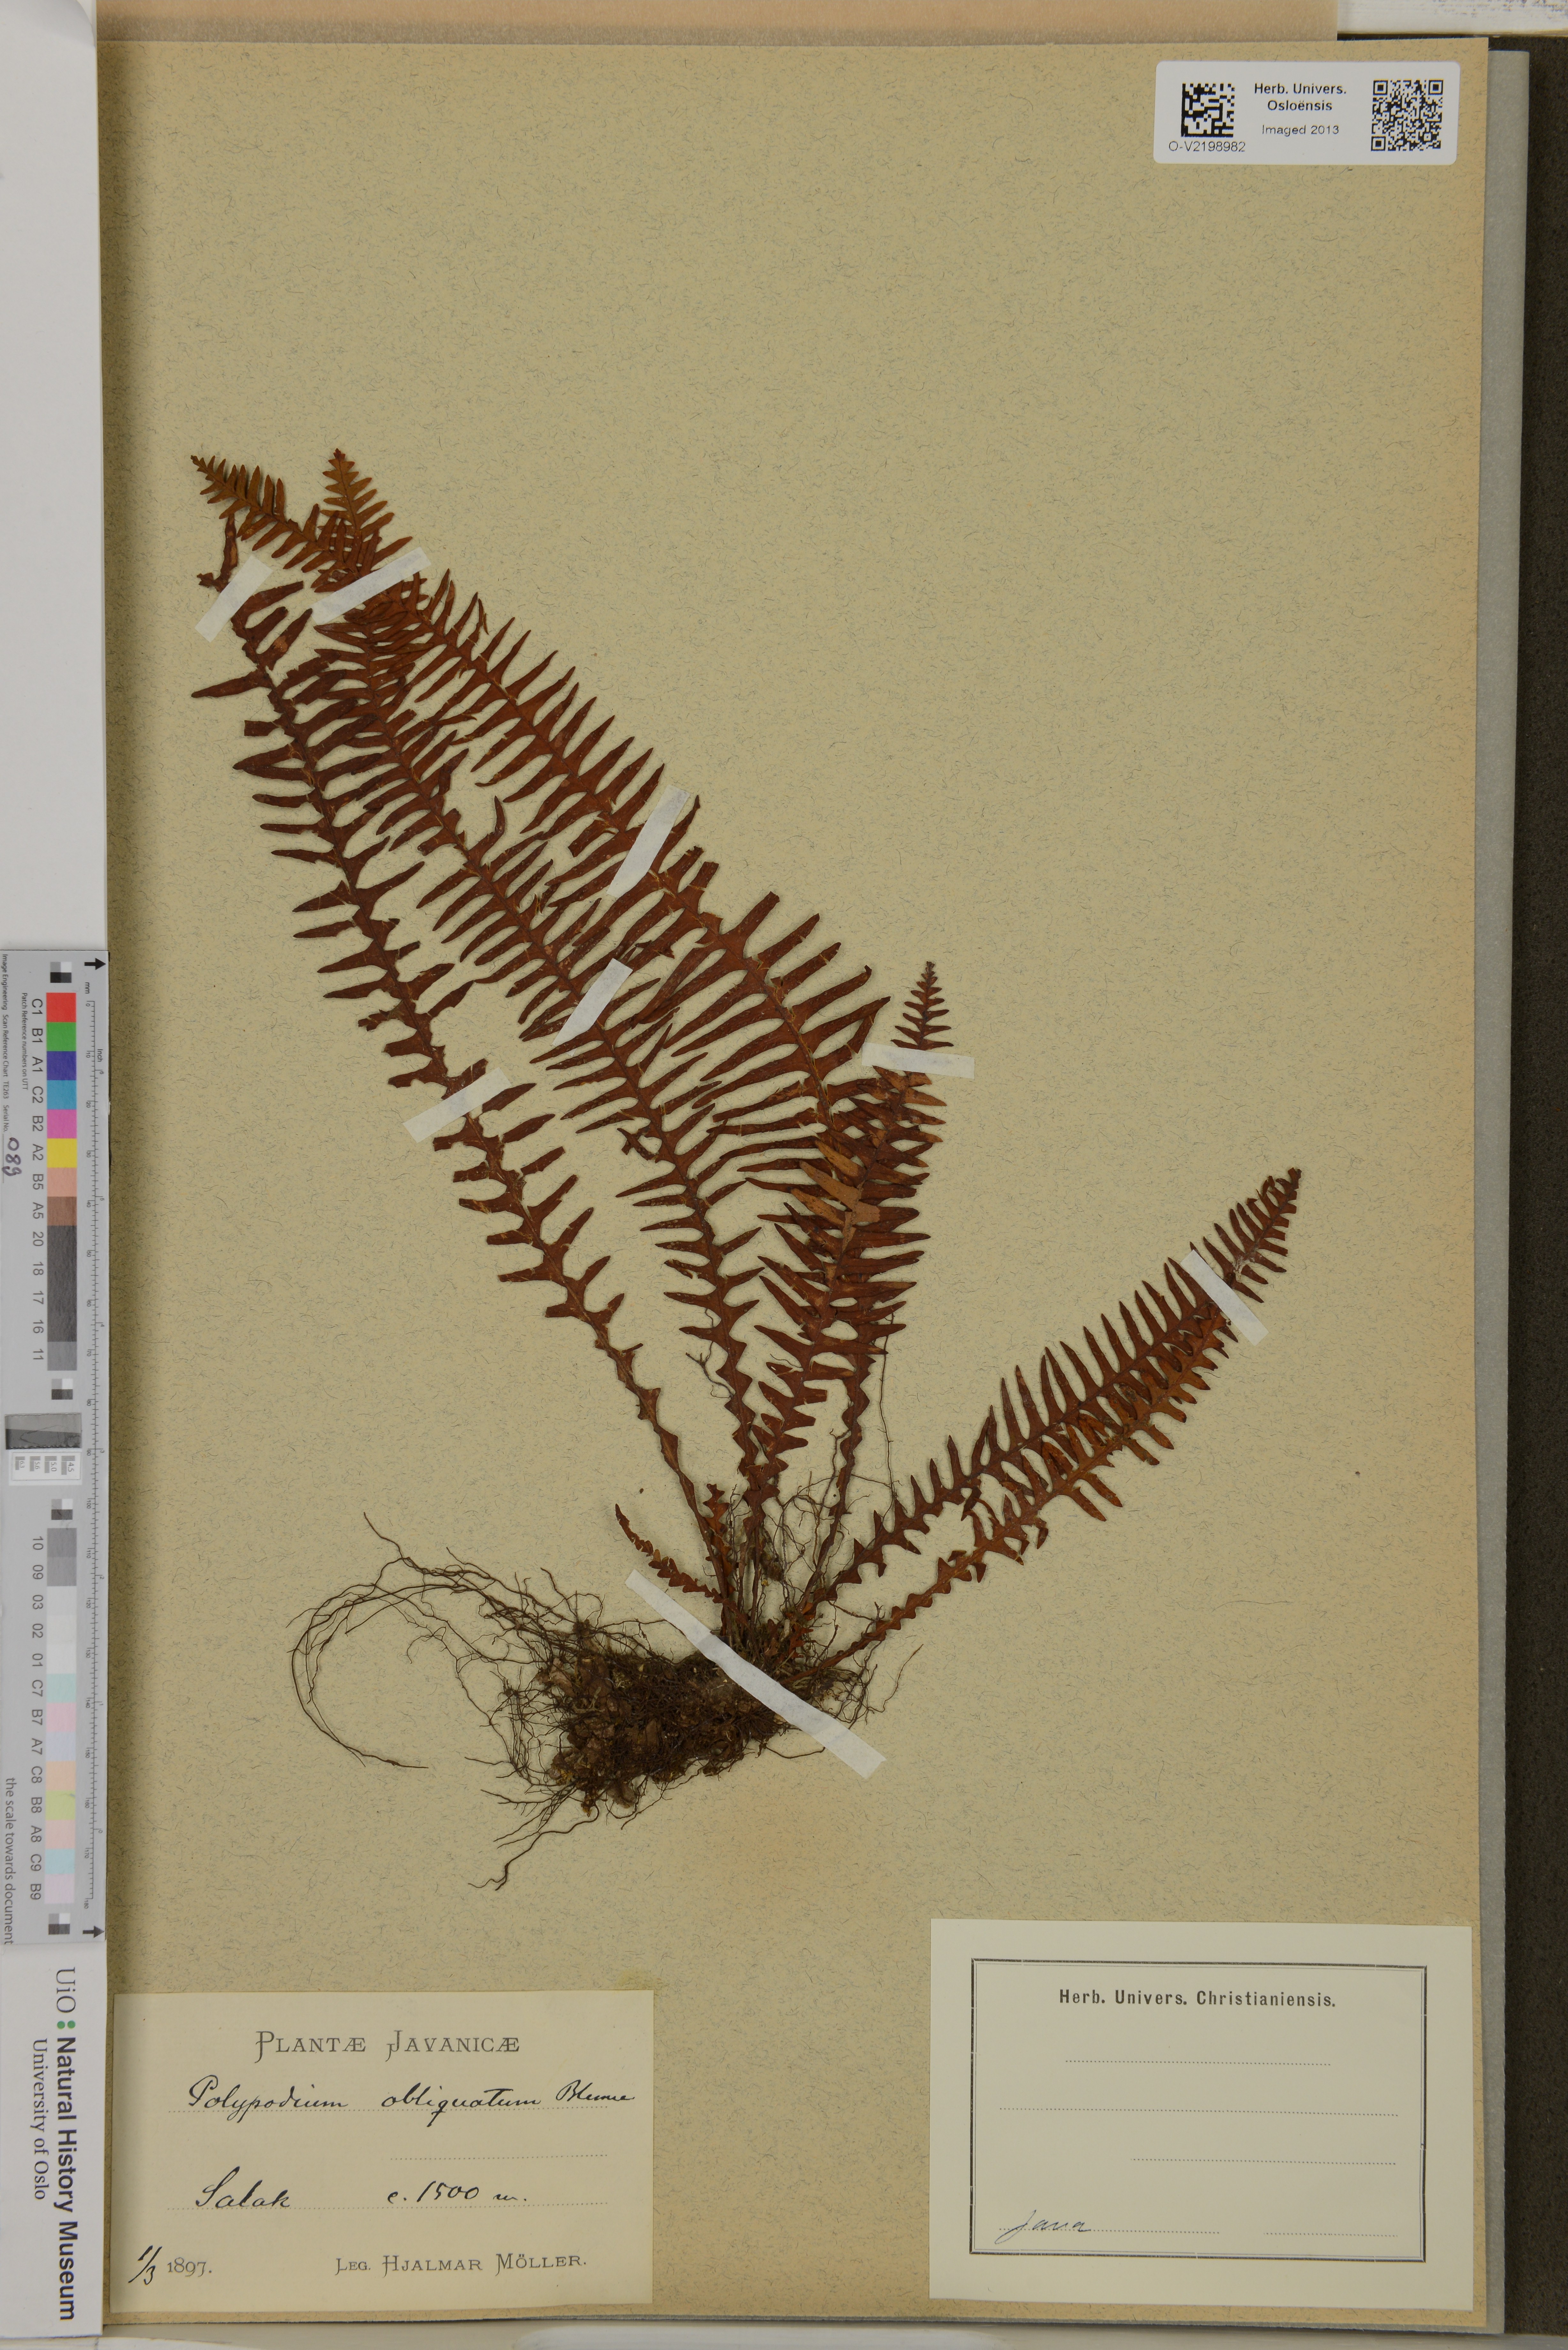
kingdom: Plantae
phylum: Tracheophyta
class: Polypodiopsida
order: Polypodiales
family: Polypodiaceae
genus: Prosaptia
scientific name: Prosaptia obliquata
